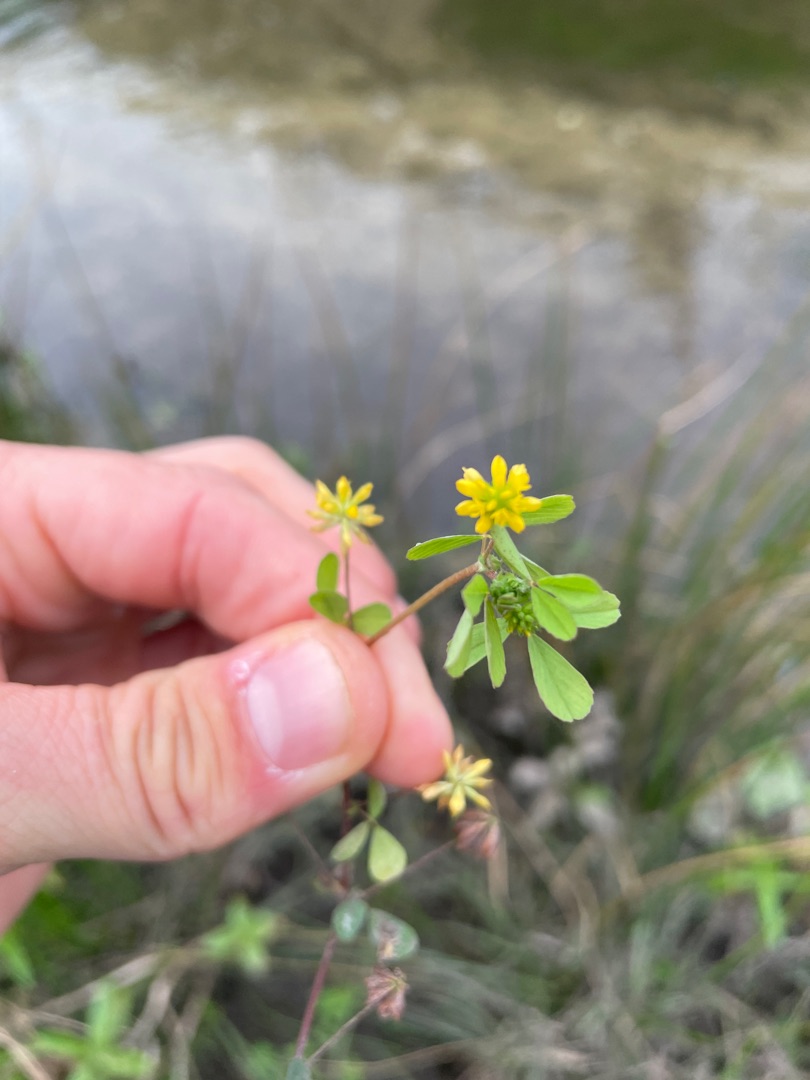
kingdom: Plantae
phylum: Tracheophyta
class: Magnoliopsida
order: Fabales
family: Fabaceae
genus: Trifolium
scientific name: Trifolium dubium
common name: Fin kløver
